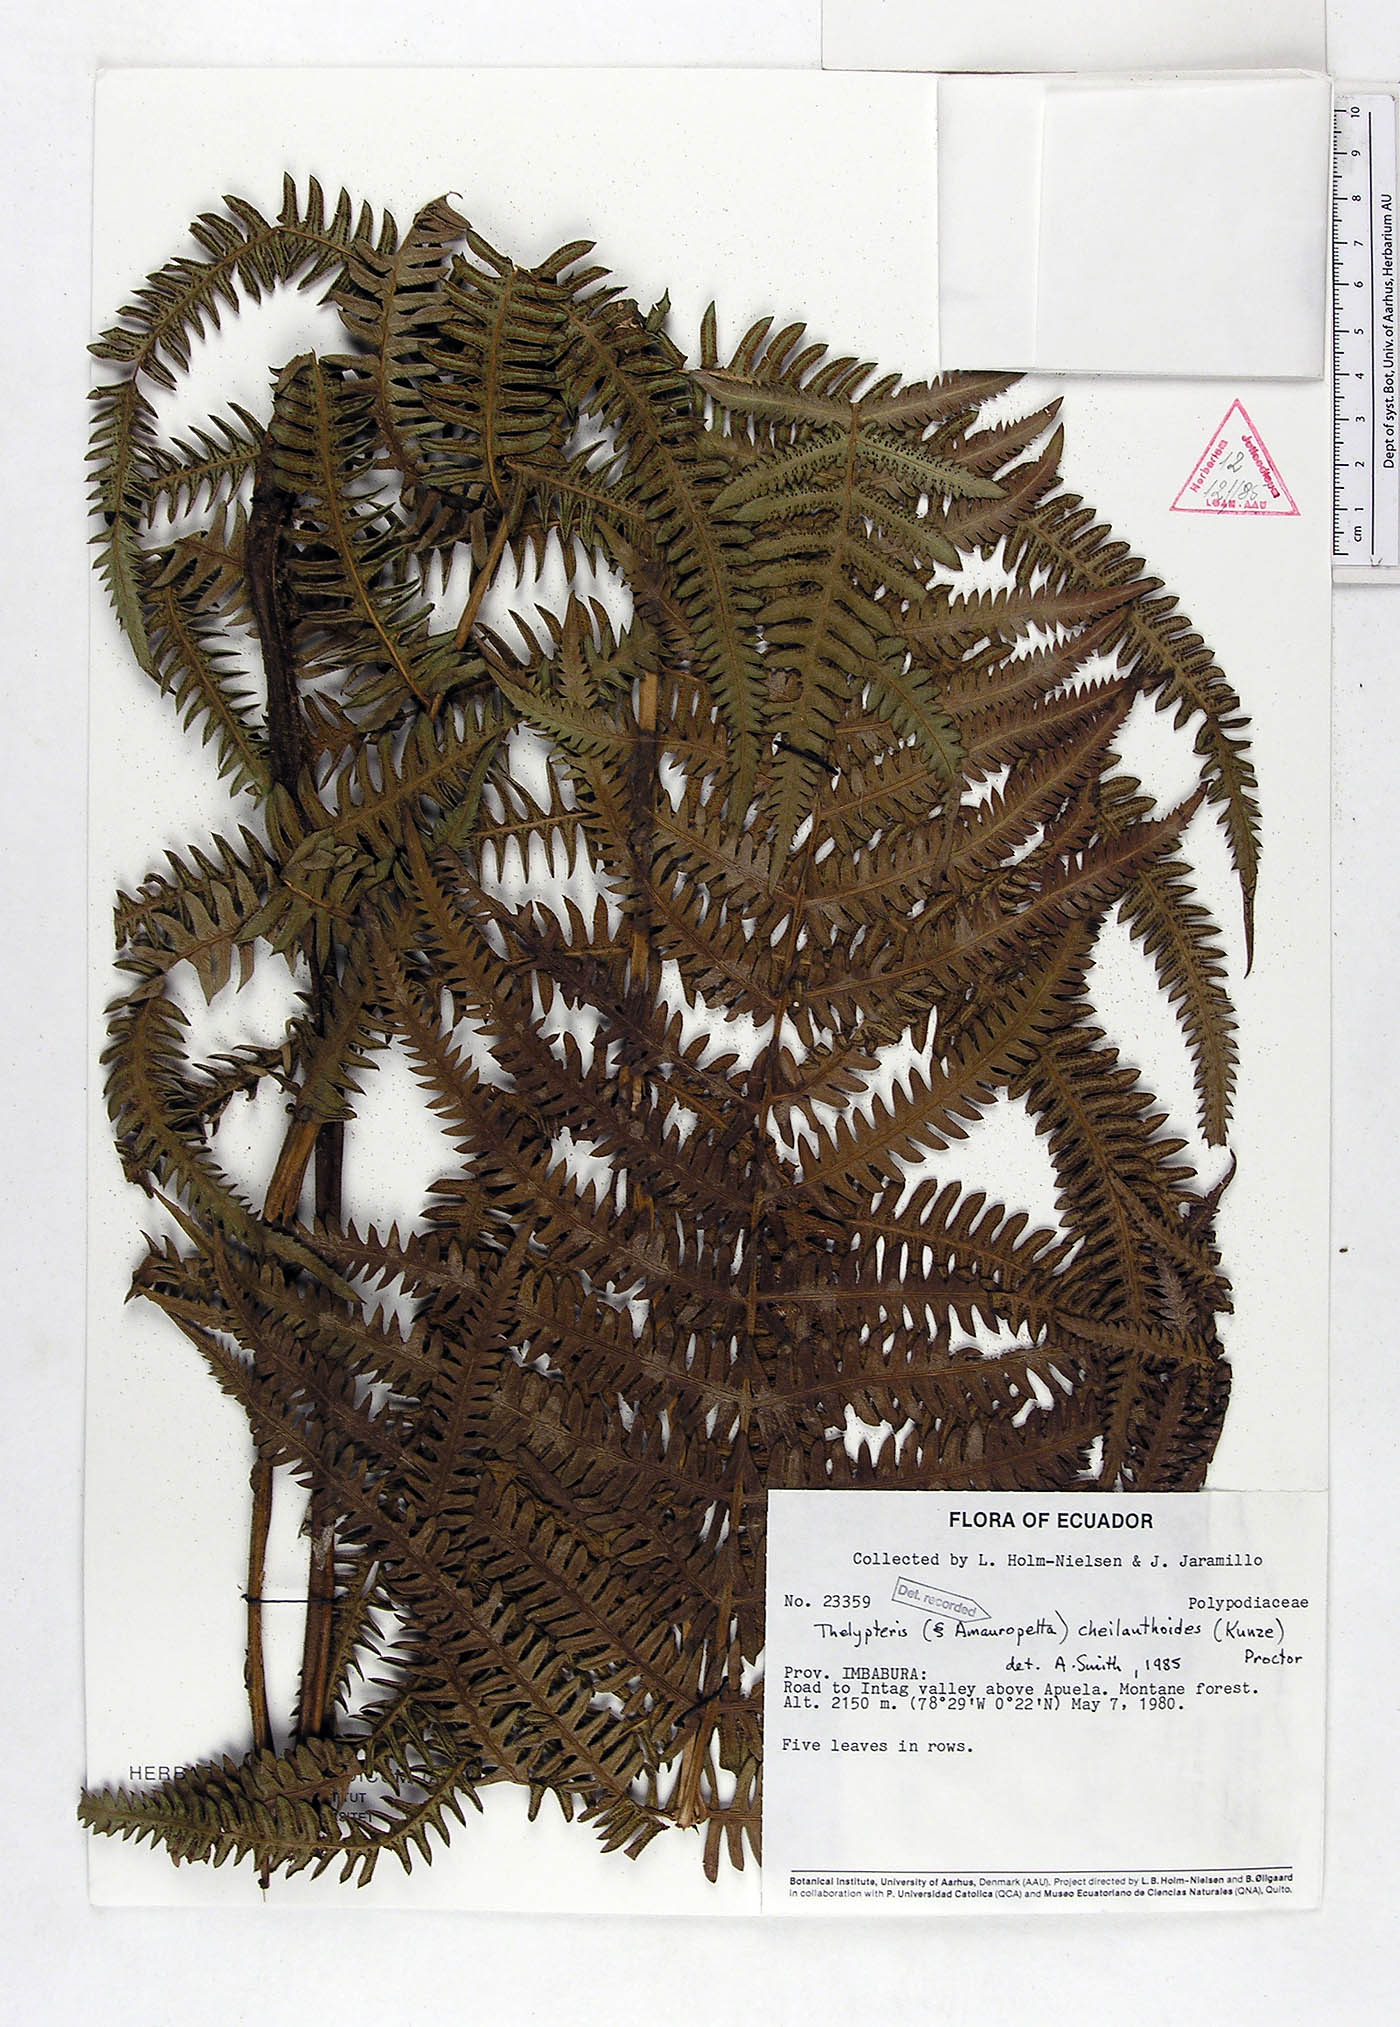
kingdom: Plantae
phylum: Tracheophyta
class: Polypodiopsida
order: Polypodiales
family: Thelypteridaceae
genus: Amauropelta
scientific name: Amauropelta cheilanthoides
